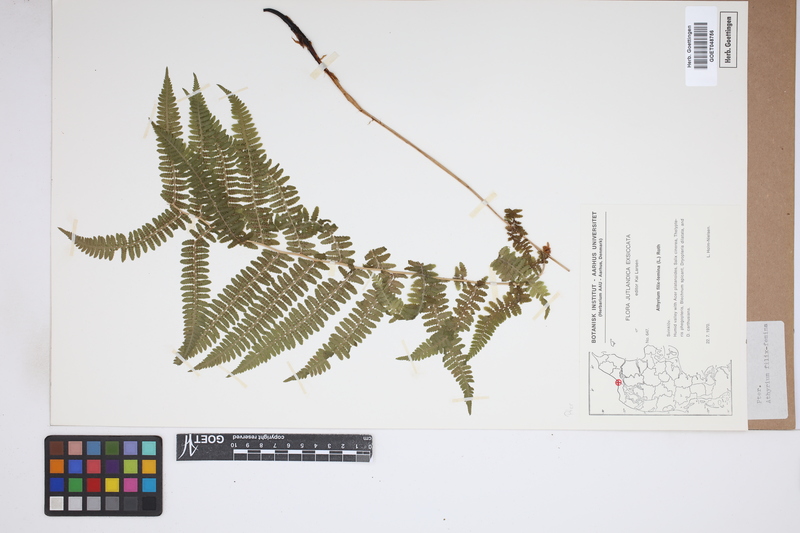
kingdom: Plantae
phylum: Tracheophyta
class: Polypodiopsida
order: Polypodiales
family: Athyriaceae
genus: Athyrium
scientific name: Athyrium filix-femina
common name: Lady fern
